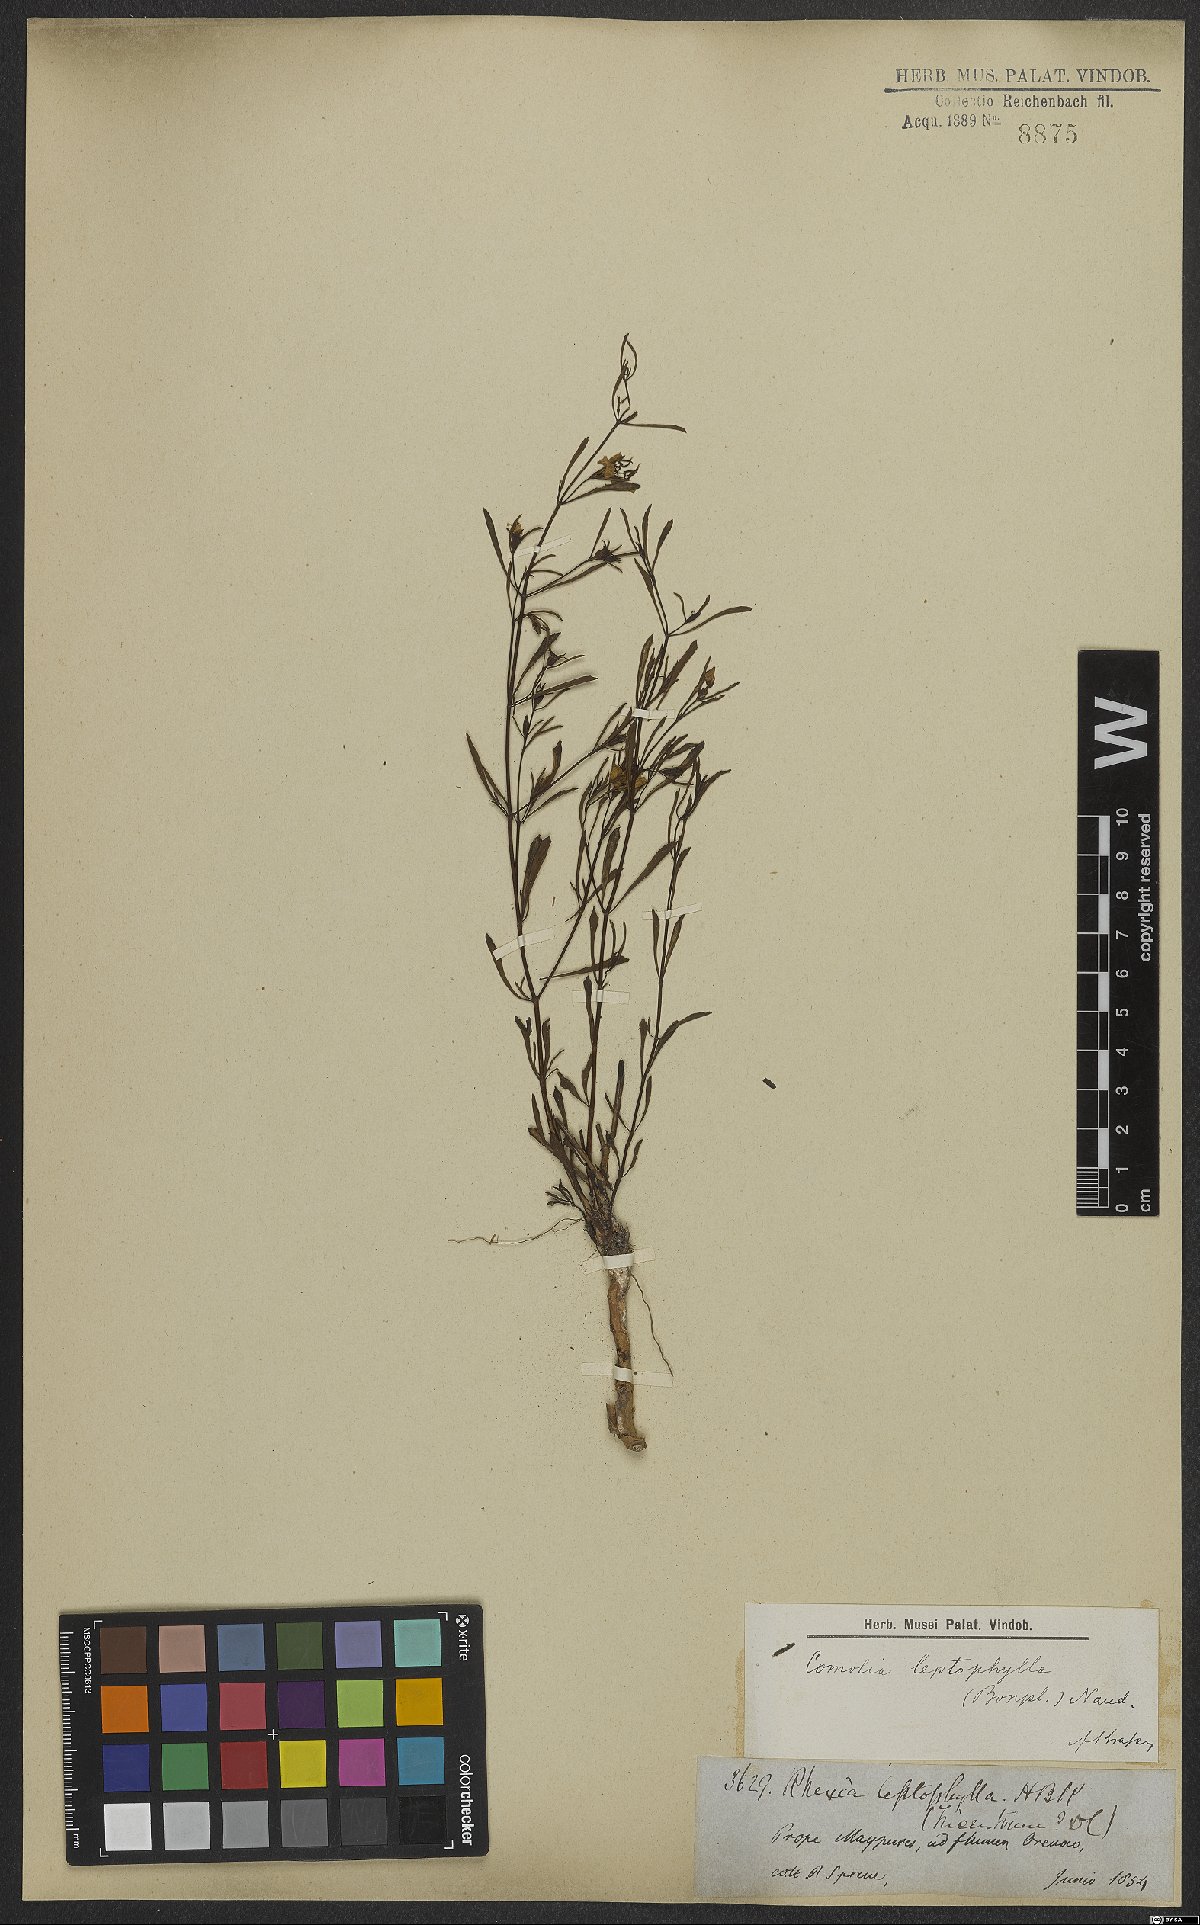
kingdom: Plantae
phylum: Tracheophyta
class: Magnoliopsida
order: Myrtales
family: Melastomataceae
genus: Comolia
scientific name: Comolia leptophylla
